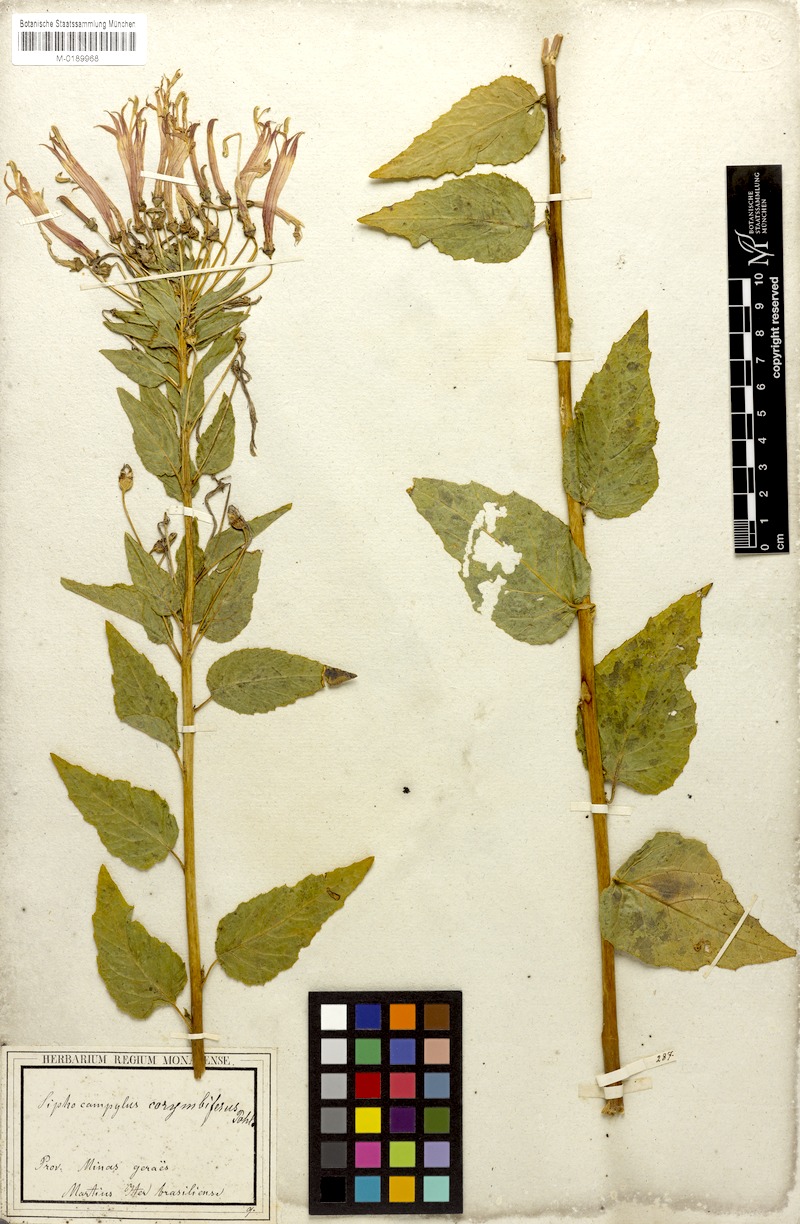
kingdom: Plantae
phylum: Tracheophyta
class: Magnoliopsida
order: Asterales
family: Campanulaceae
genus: Siphocampylus
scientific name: Siphocampylus corymbifer
